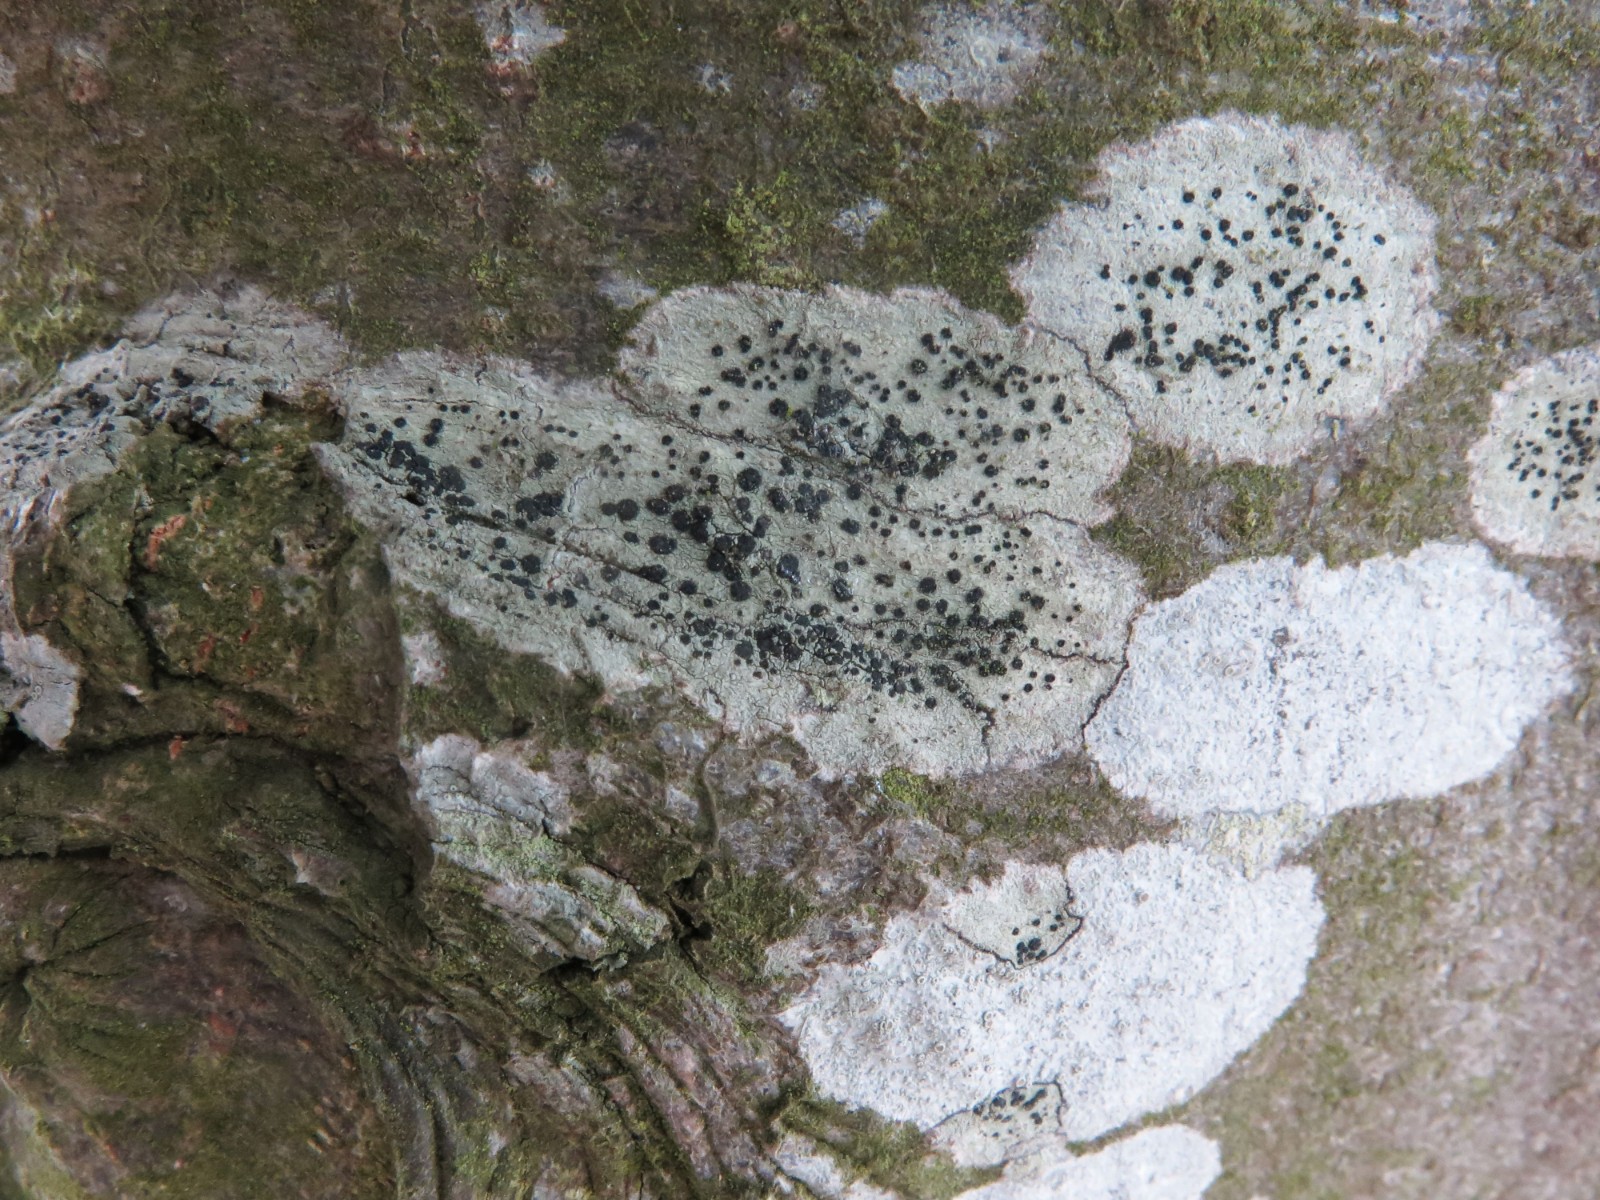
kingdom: Fungi
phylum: Ascomycota
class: Lecanoromycetes
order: Lecanorales
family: Lecanoraceae
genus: Lecidella
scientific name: Lecidella elaeochroma
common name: grågrøn skivelav
